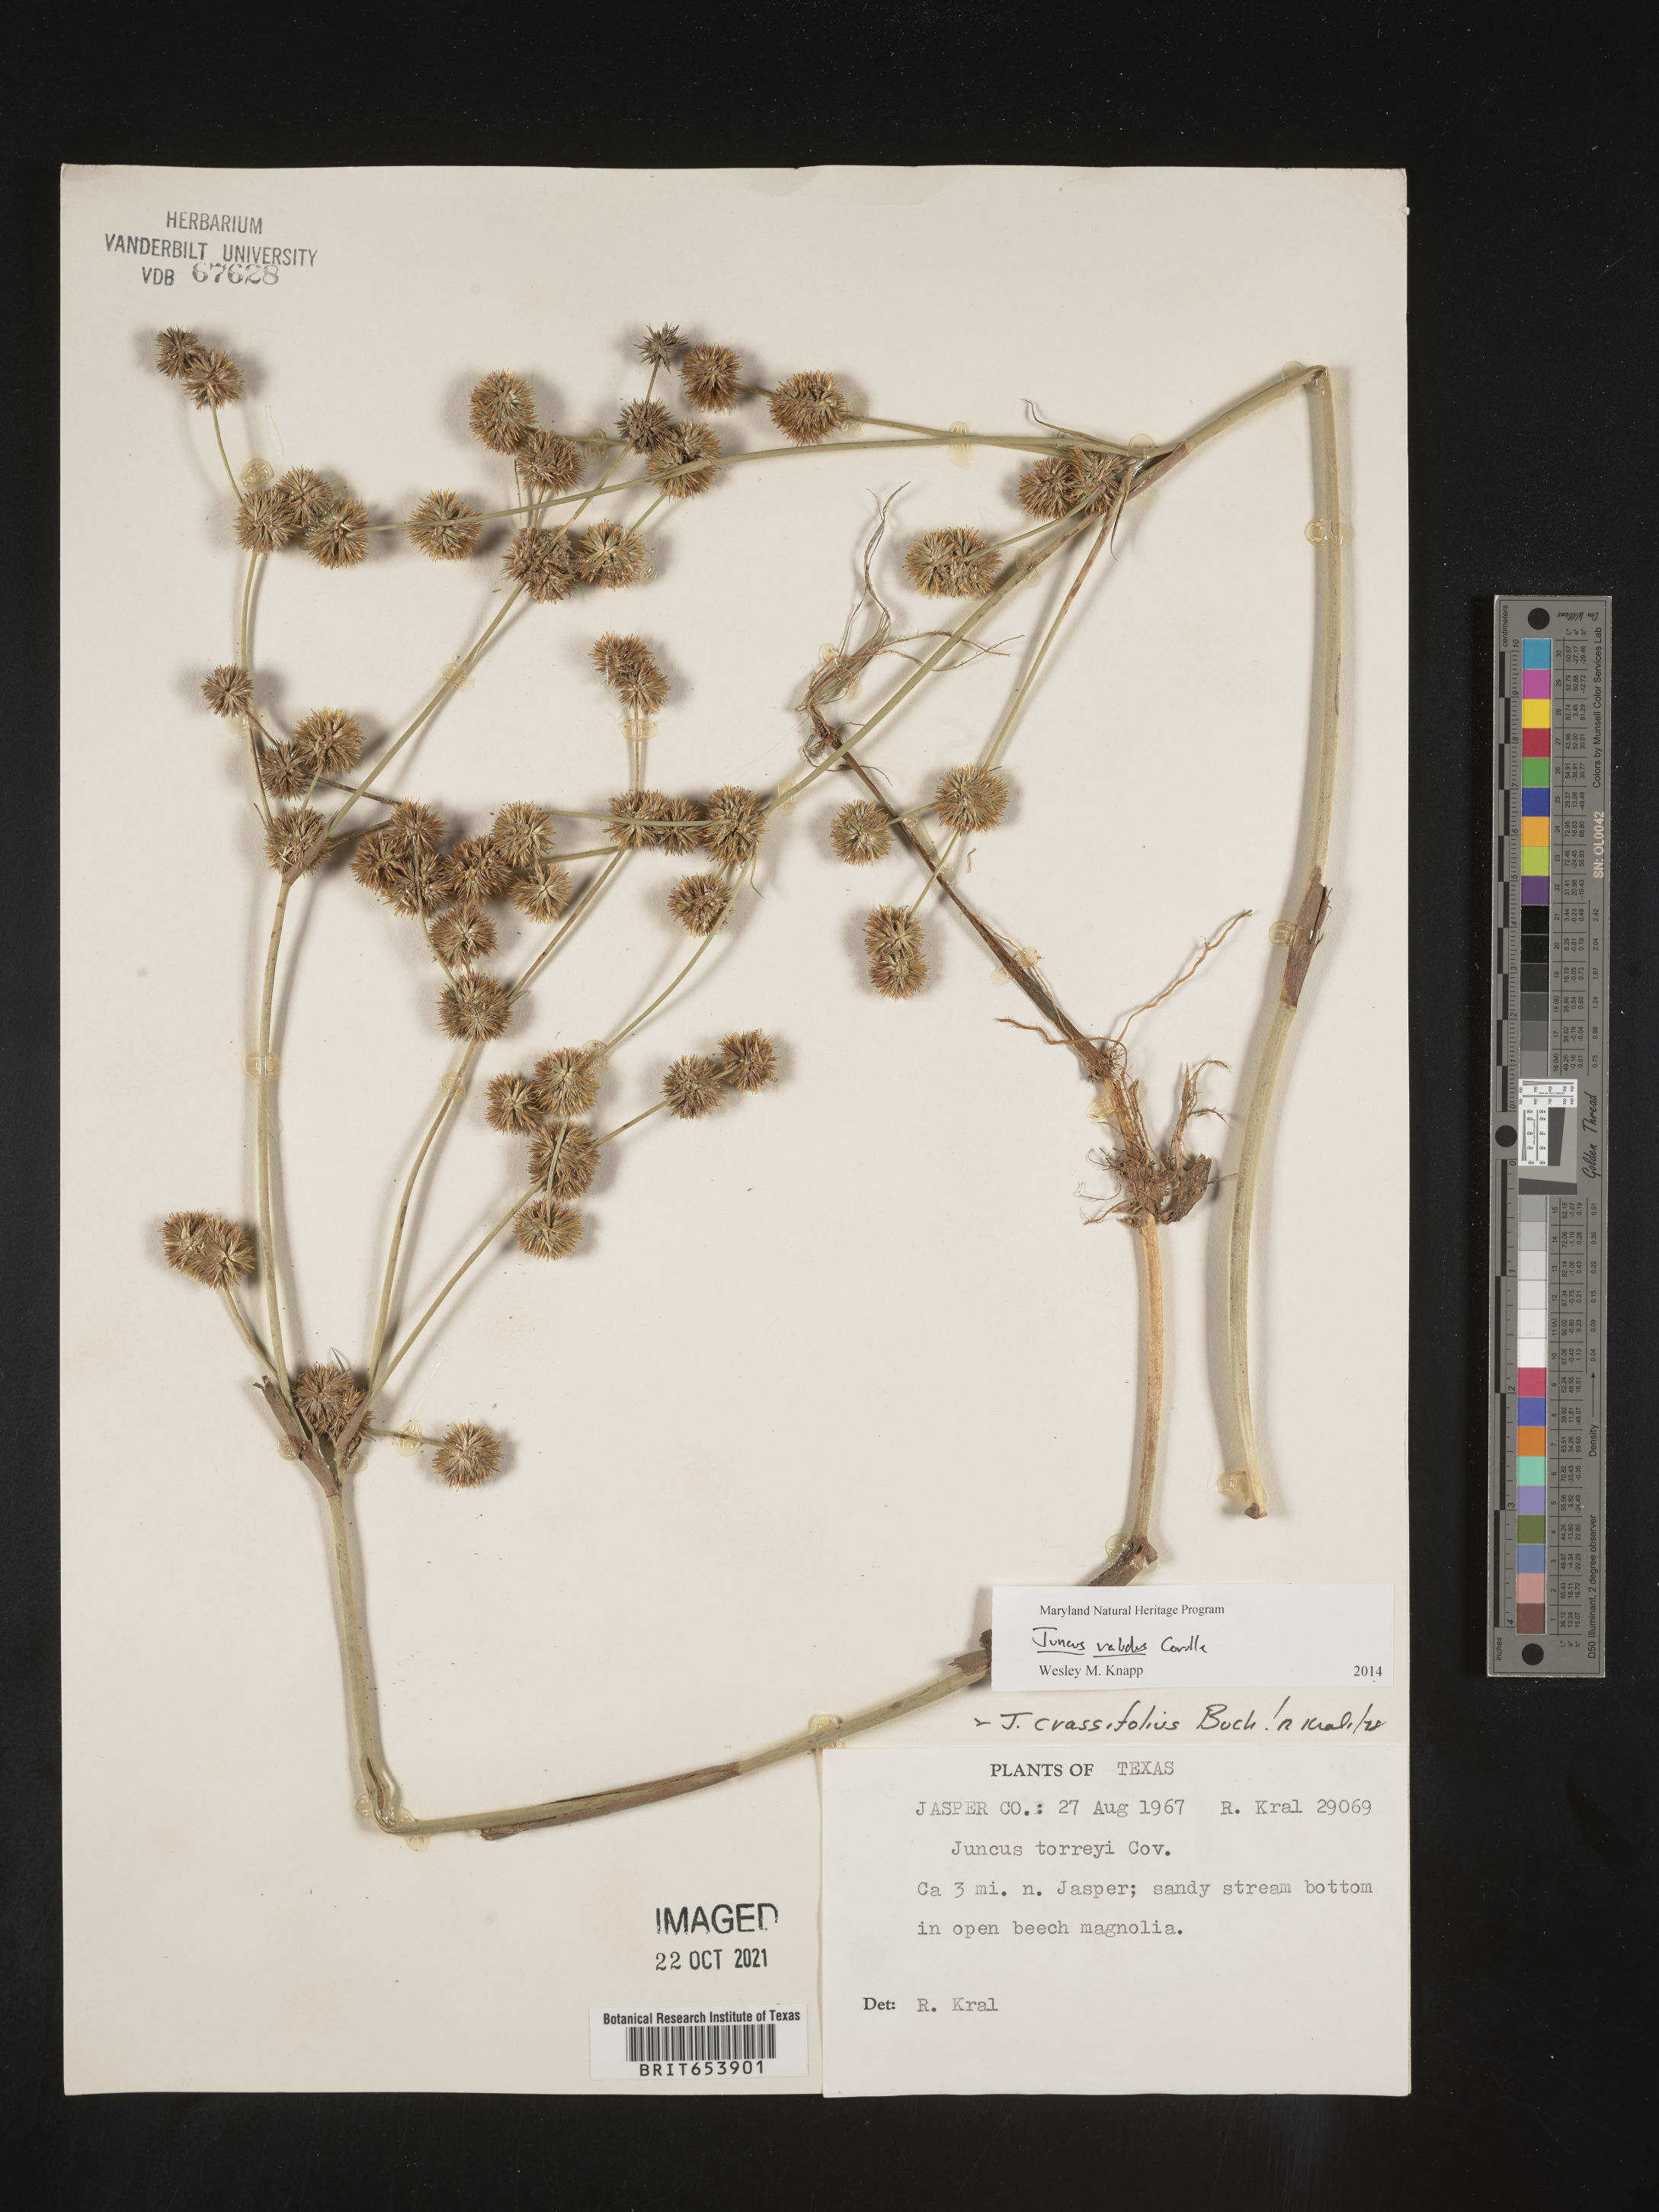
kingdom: Plantae
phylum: Tracheophyta
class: Liliopsida
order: Poales
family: Juncaceae
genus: Juncus
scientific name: Juncus validus
